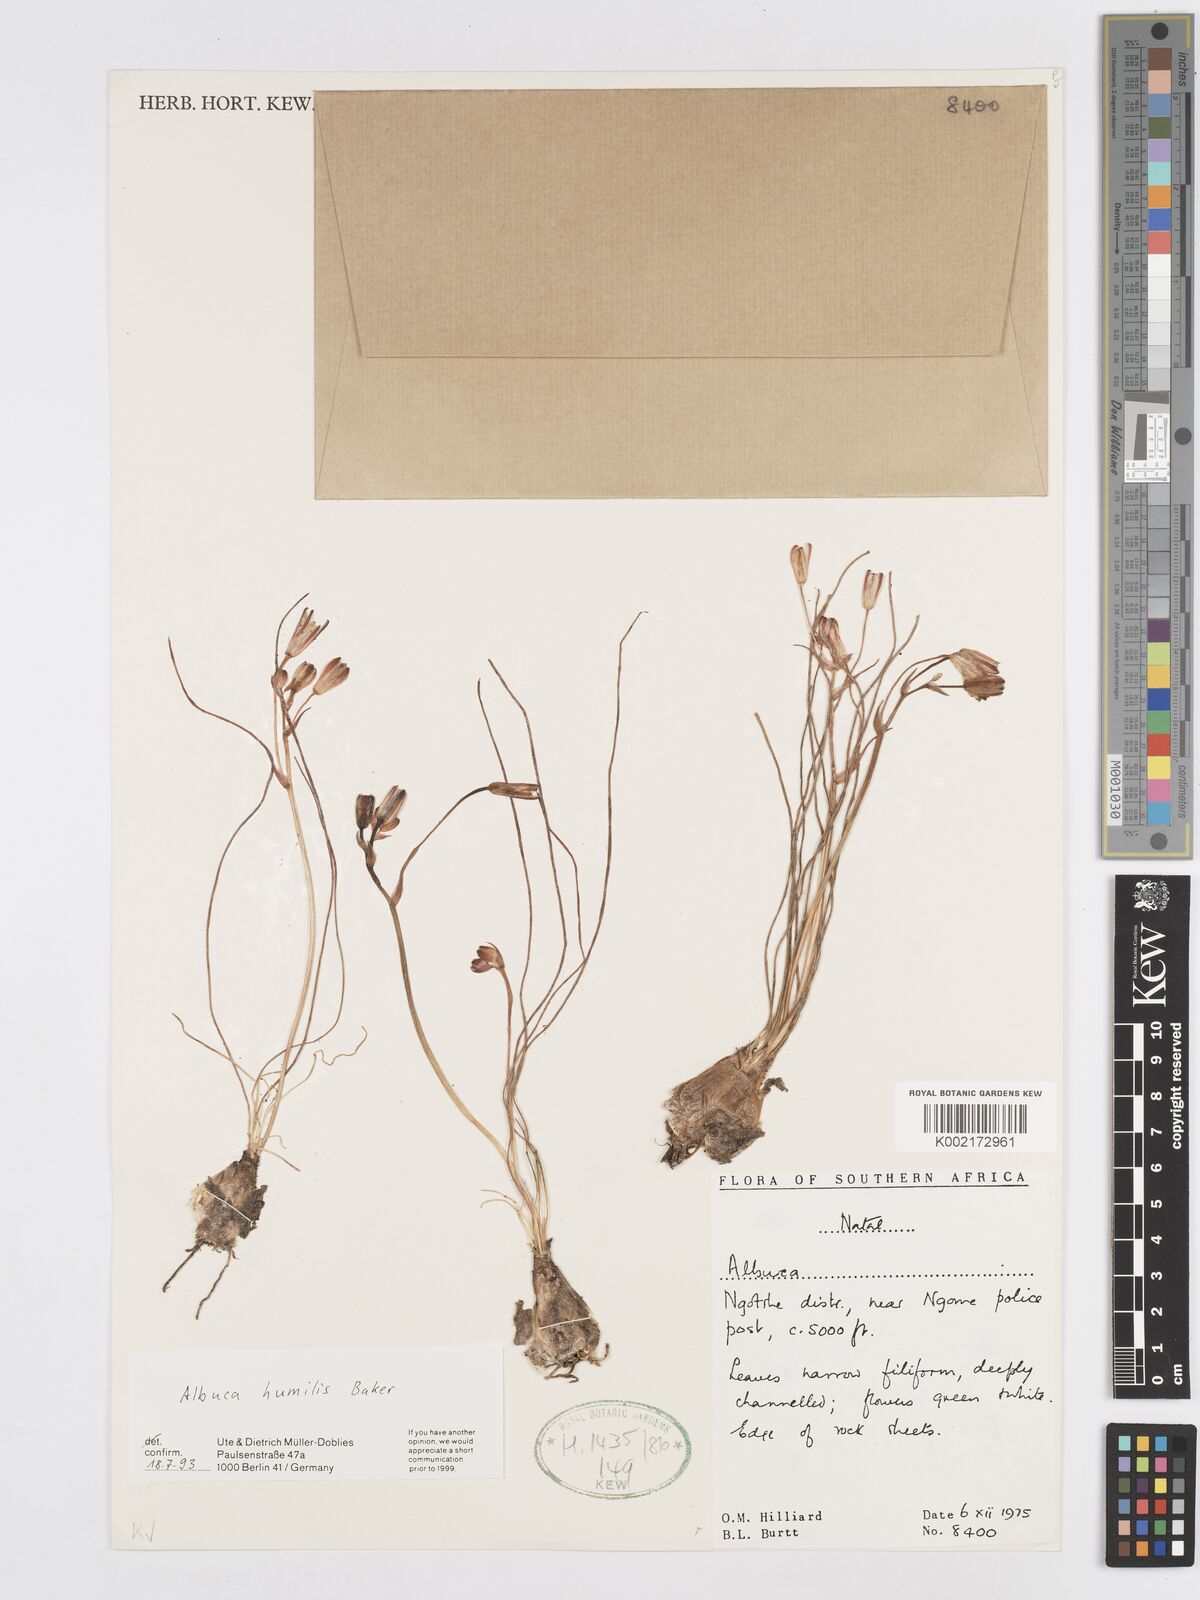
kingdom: Plantae
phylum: Tracheophyta
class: Liliopsida
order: Asparagales
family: Asparagaceae
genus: Albuca
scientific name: Albuca humilis
